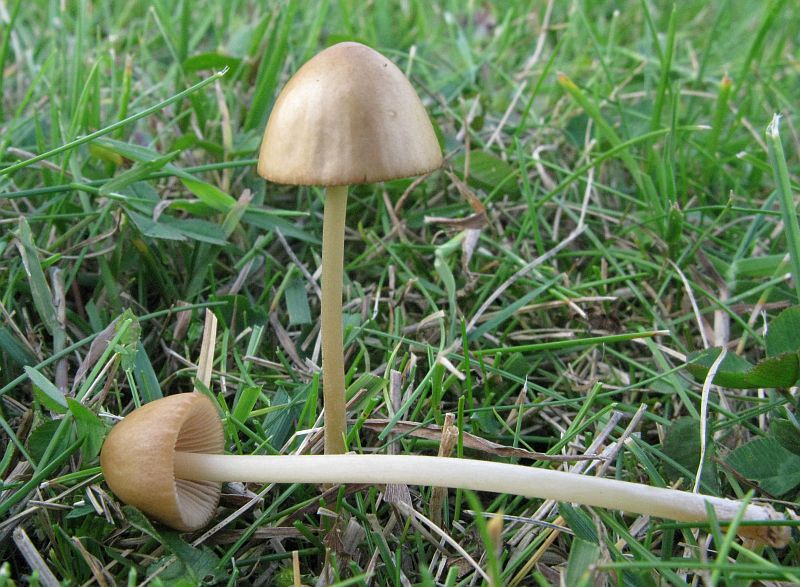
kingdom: Fungi
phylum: Basidiomycota
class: Agaricomycetes
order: Agaricales
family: Bolbitiaceae
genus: Conocybe
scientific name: Conocybe subpallida
